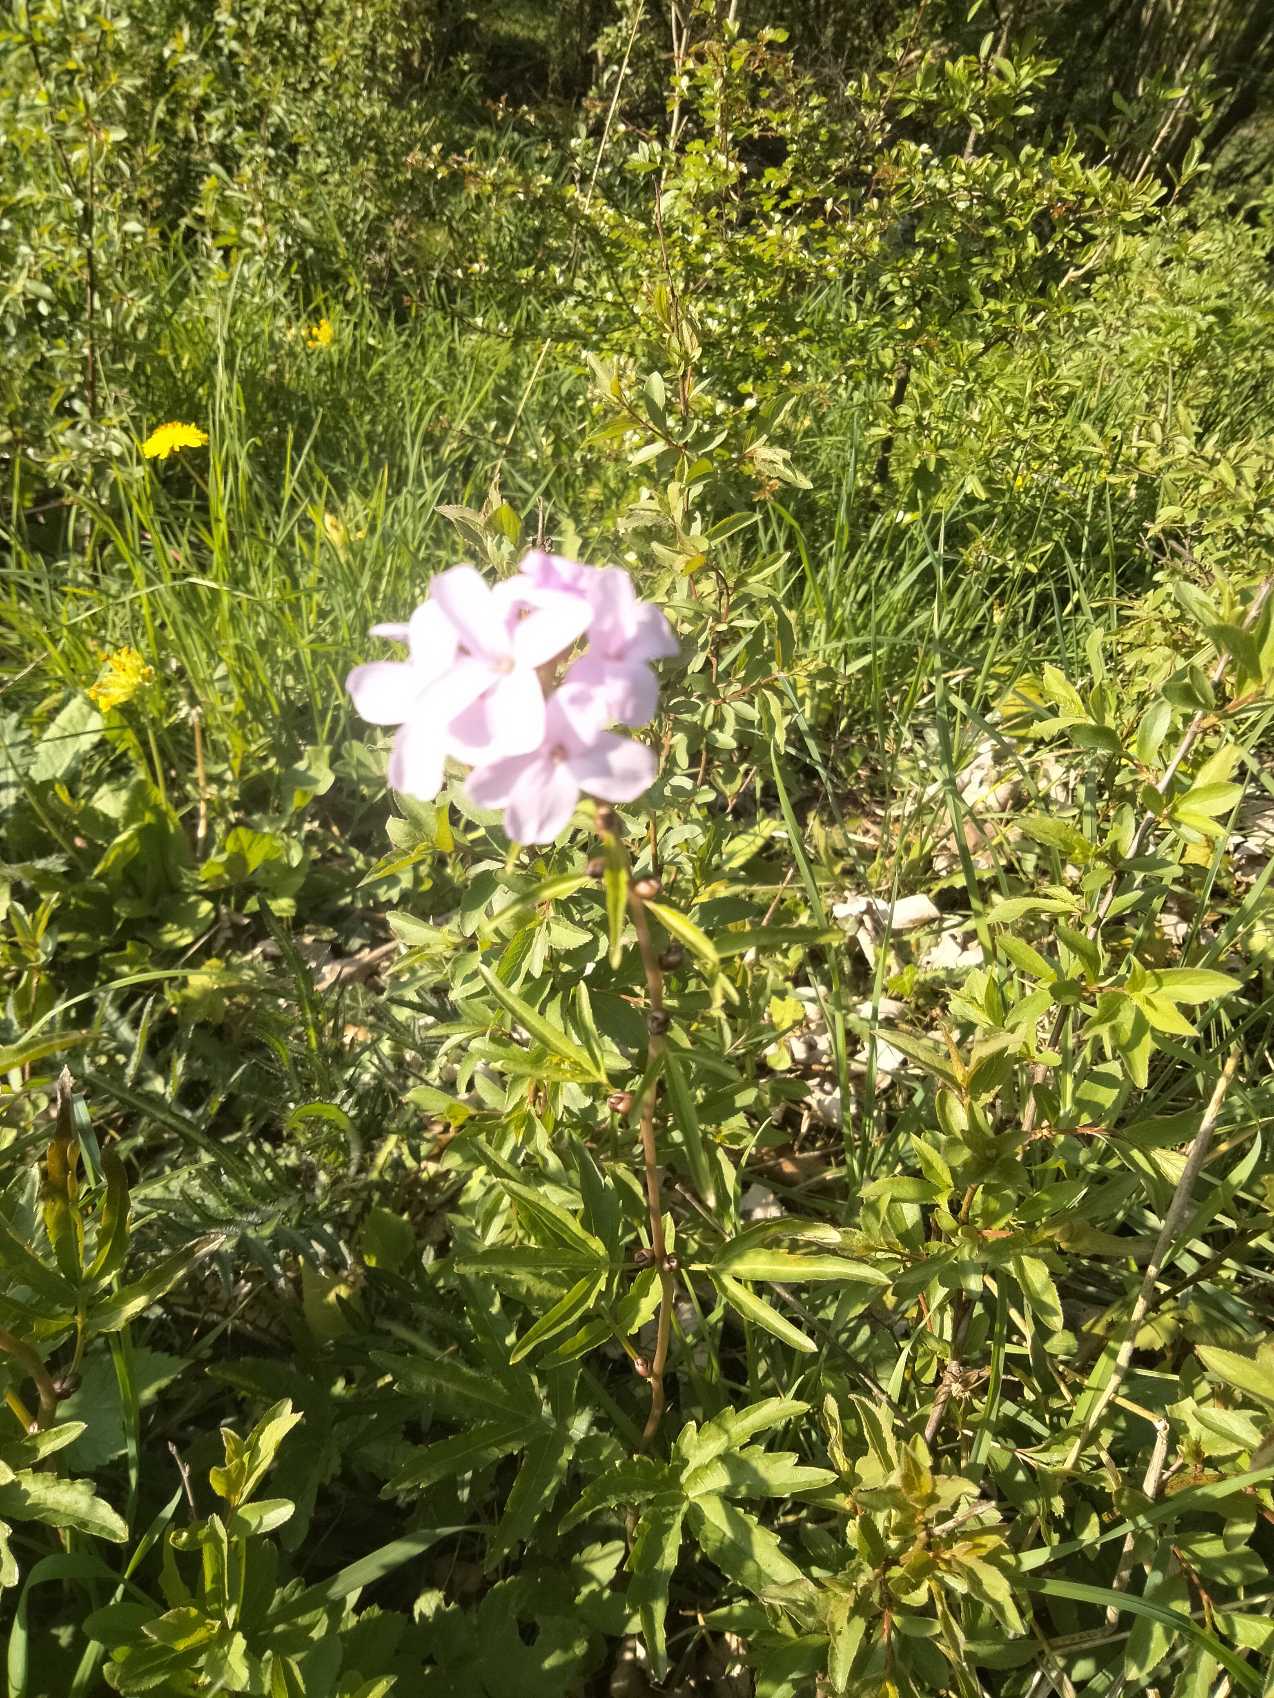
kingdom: Plantae
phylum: Tracheophyta
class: Magnoliopsida
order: Brassicales
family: Brassicaceae
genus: Cardamine
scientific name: Cardamine bulbifera
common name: Tandrod
